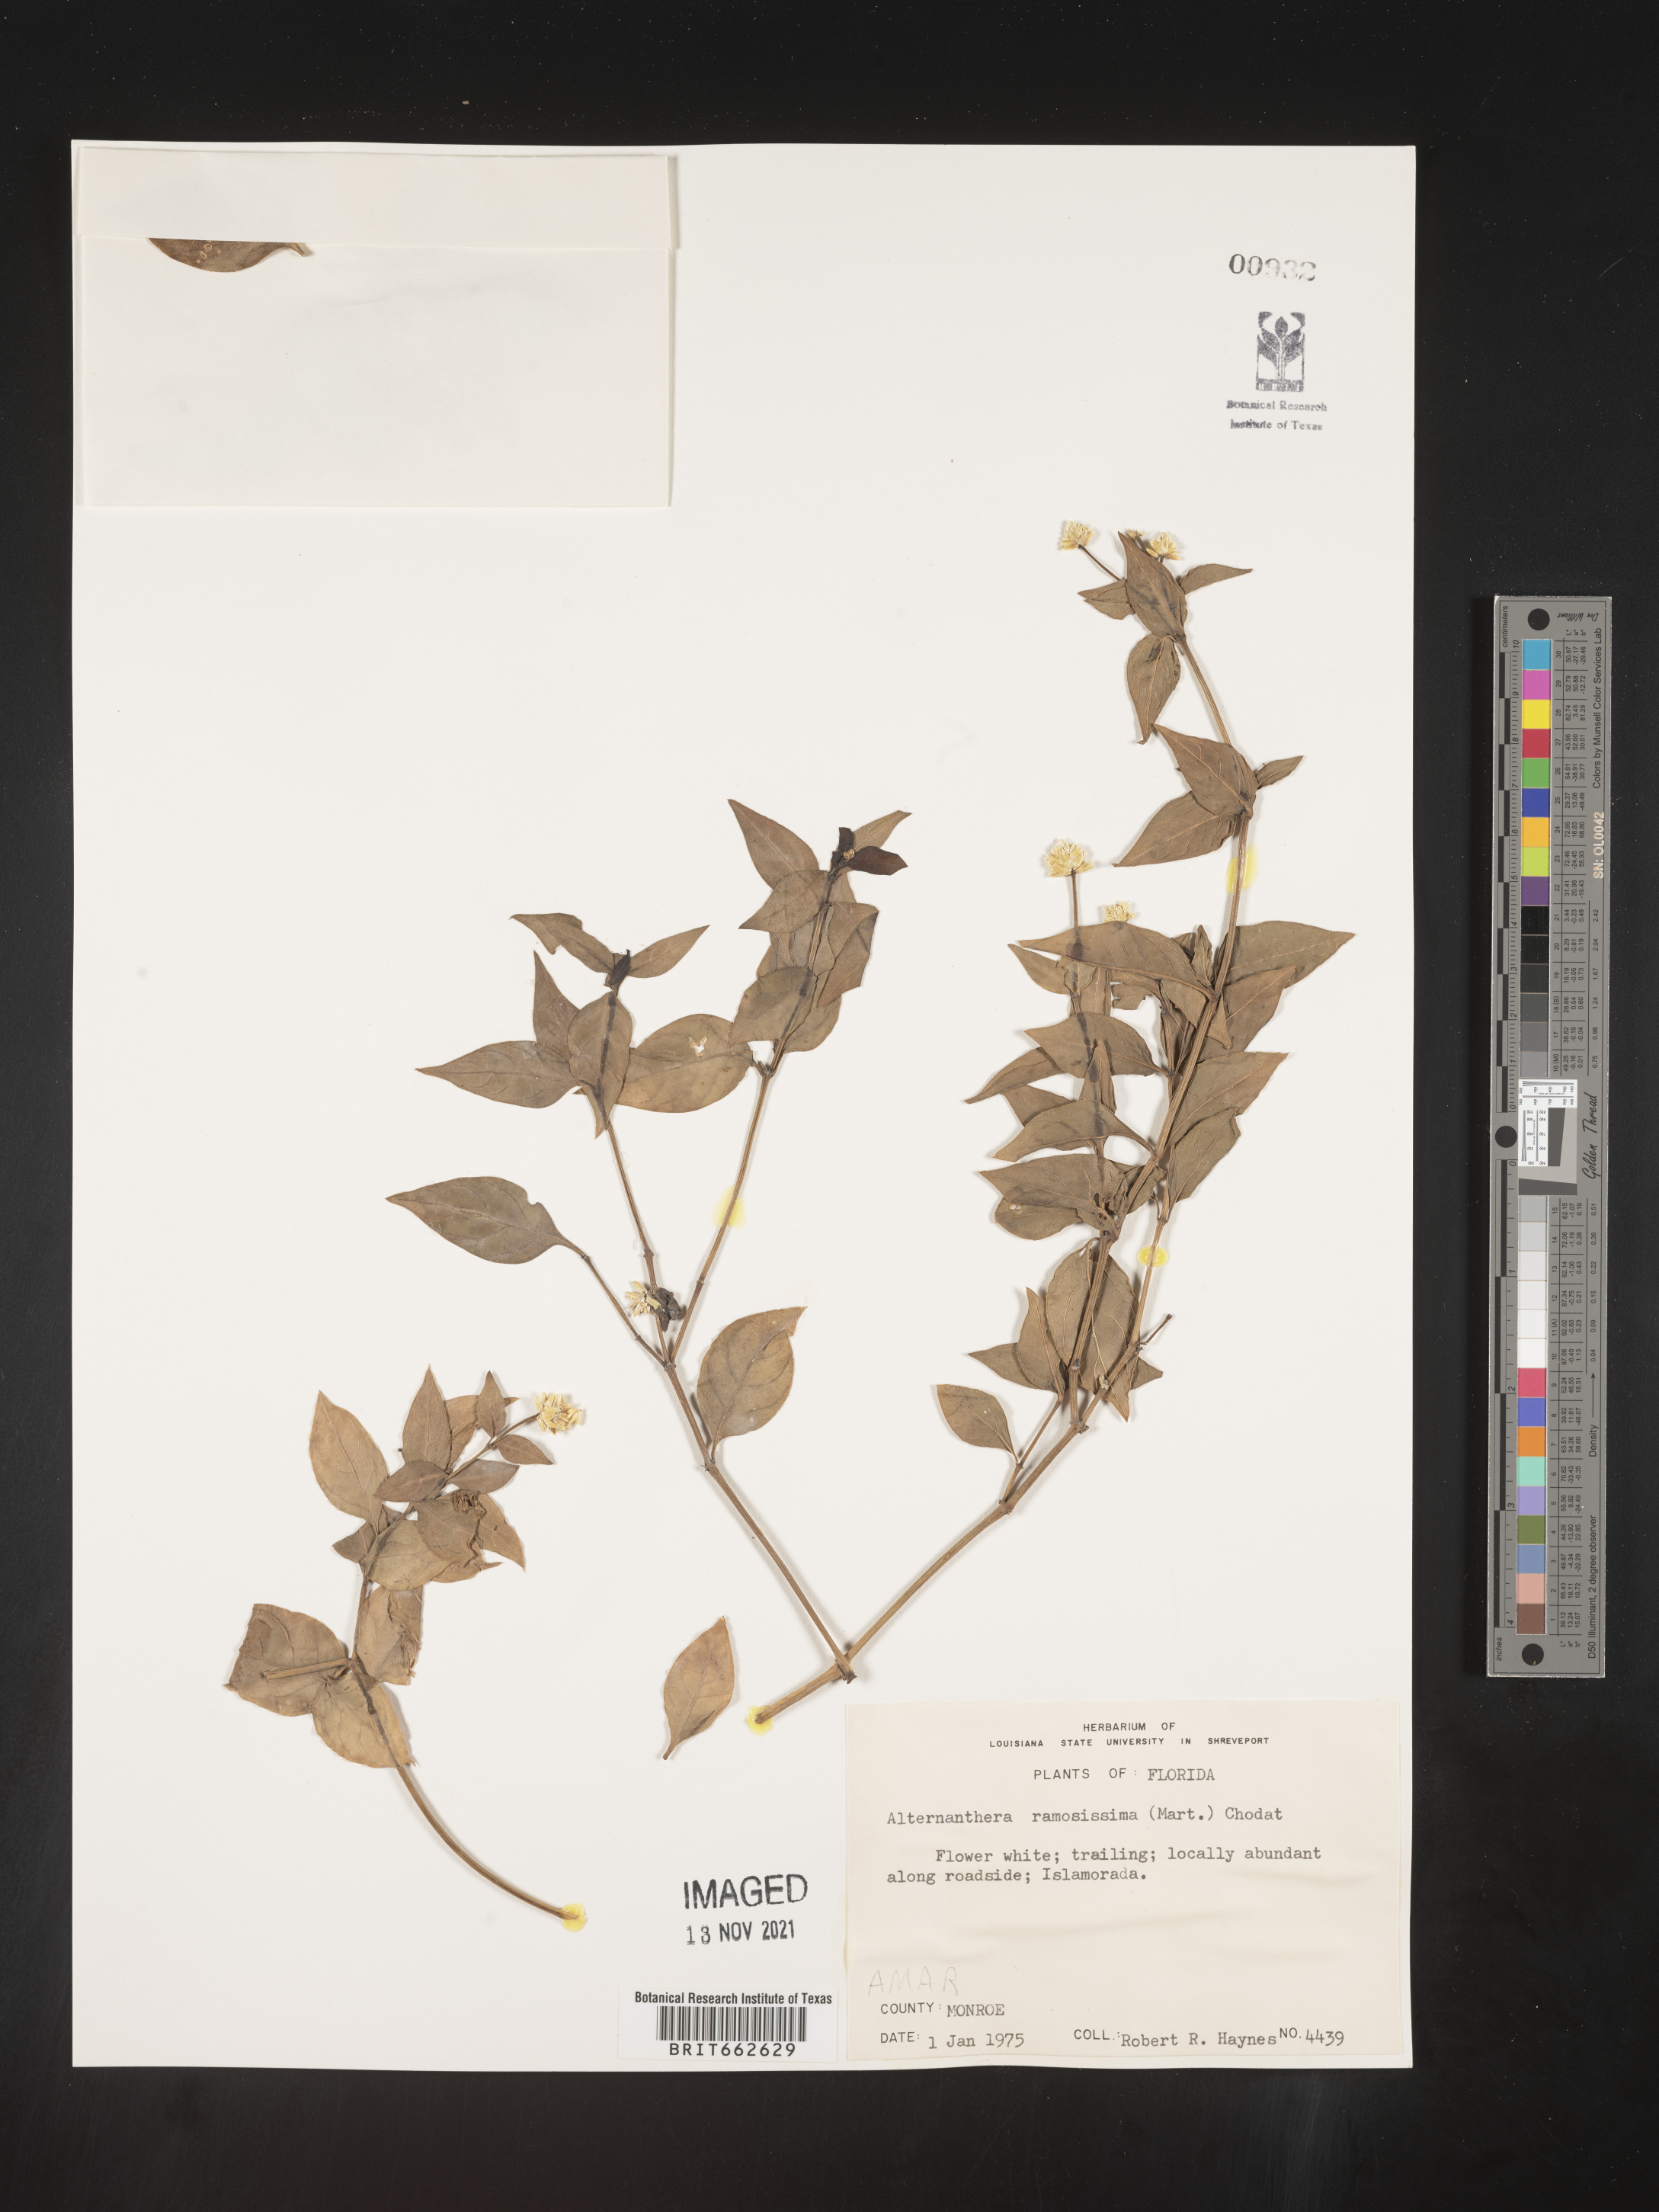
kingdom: Plantae
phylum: Tracheophyta
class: Magnoliopsida
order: Caryophyllales
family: Amaranthaceae
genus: Alternanthera
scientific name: Alternanthera ramosissima
